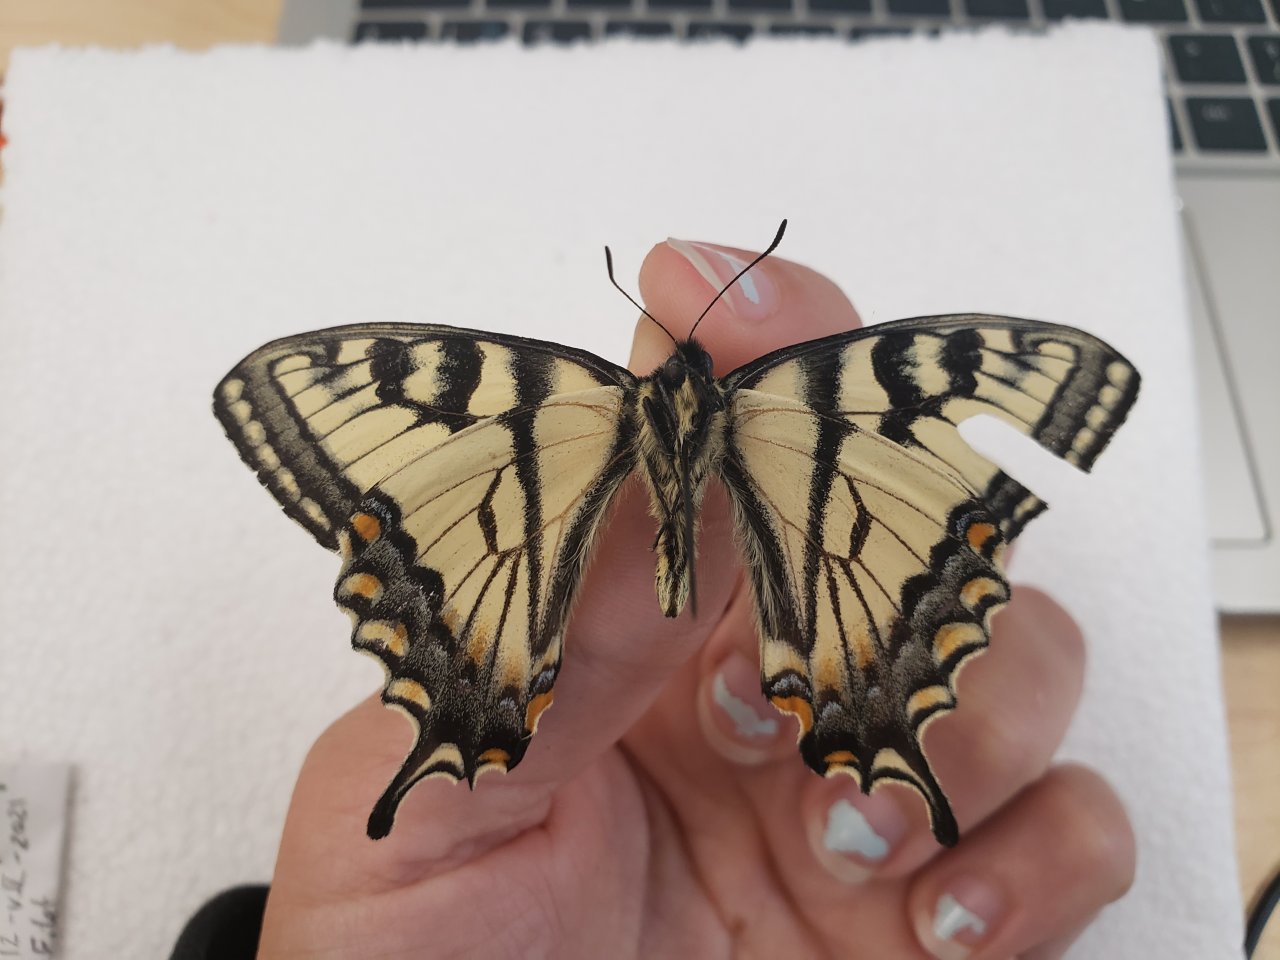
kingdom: Animalia
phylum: Arthropoda
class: Insecta
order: Lepidoptera
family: Papilionidae
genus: Pterourus
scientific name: Pterourus canadensis
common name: Canadian Tiger Swallowtail
